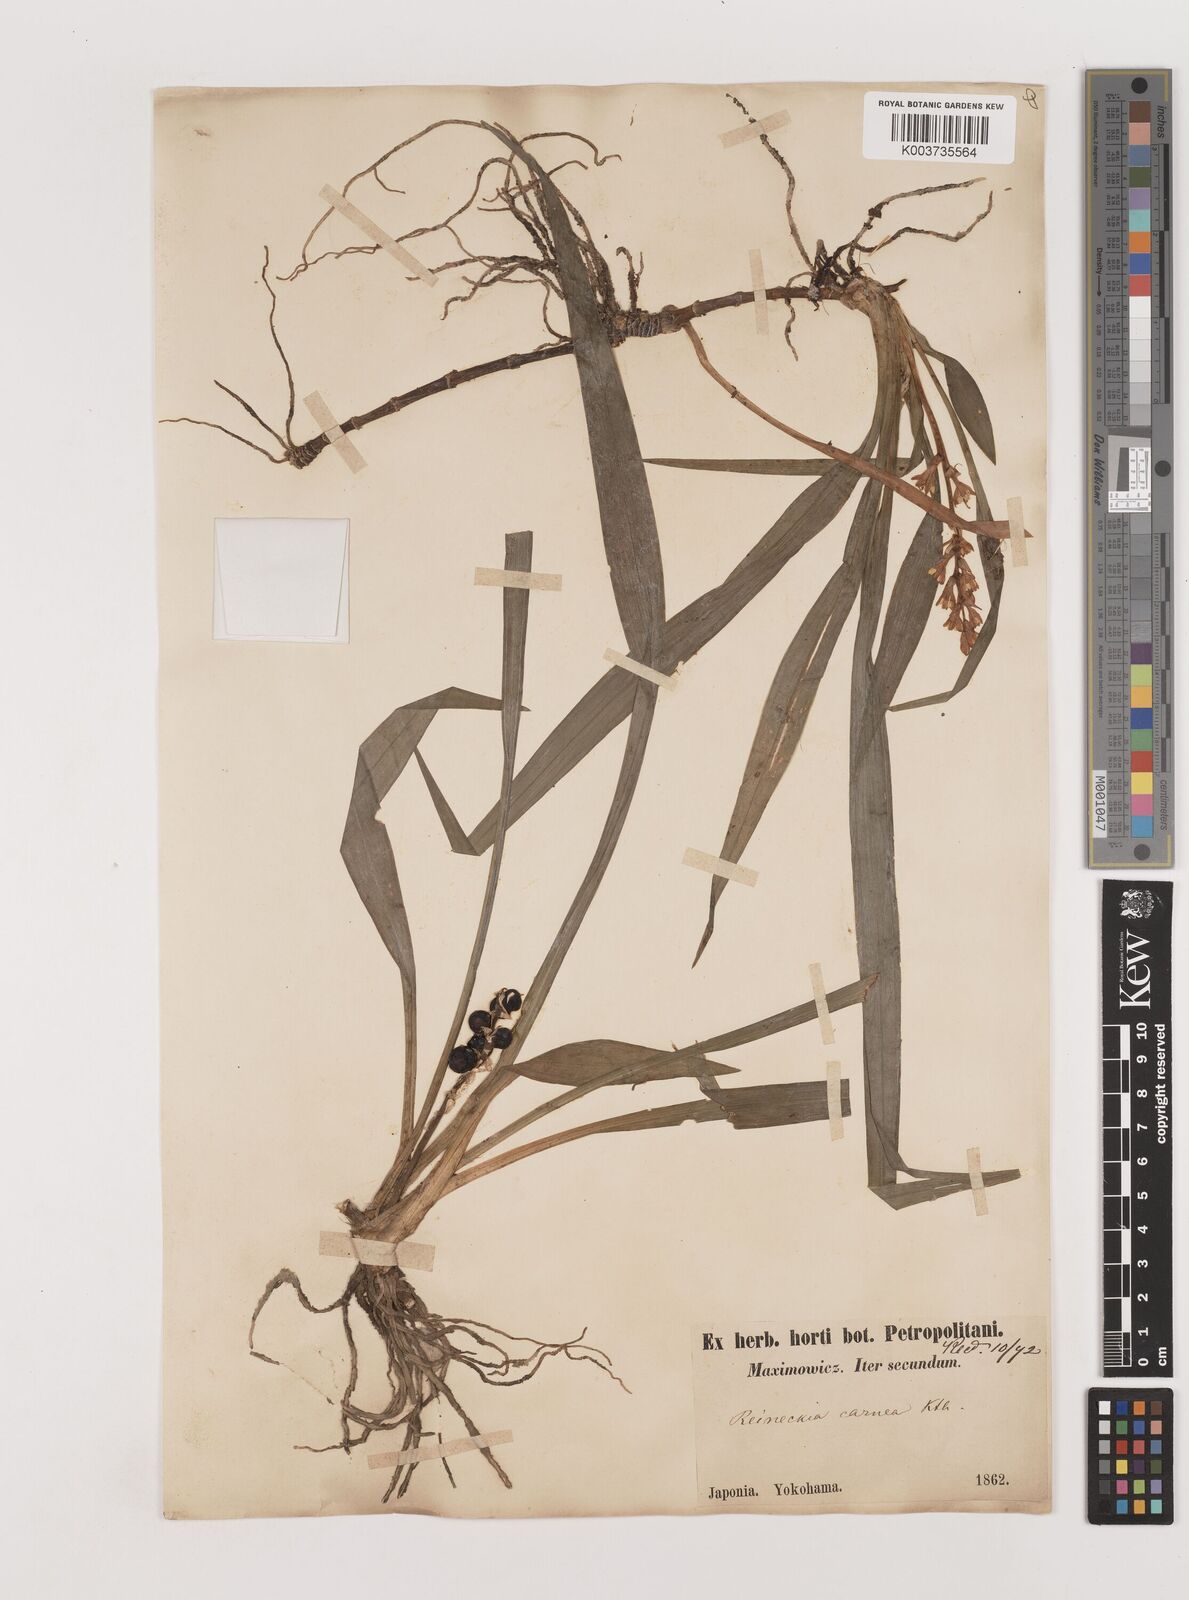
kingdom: Plantae
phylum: Tracheophyta
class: Liliopsida
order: Asparagales
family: Asparagaceae
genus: Reineckea
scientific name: Reineckea carnea
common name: Reineckea
